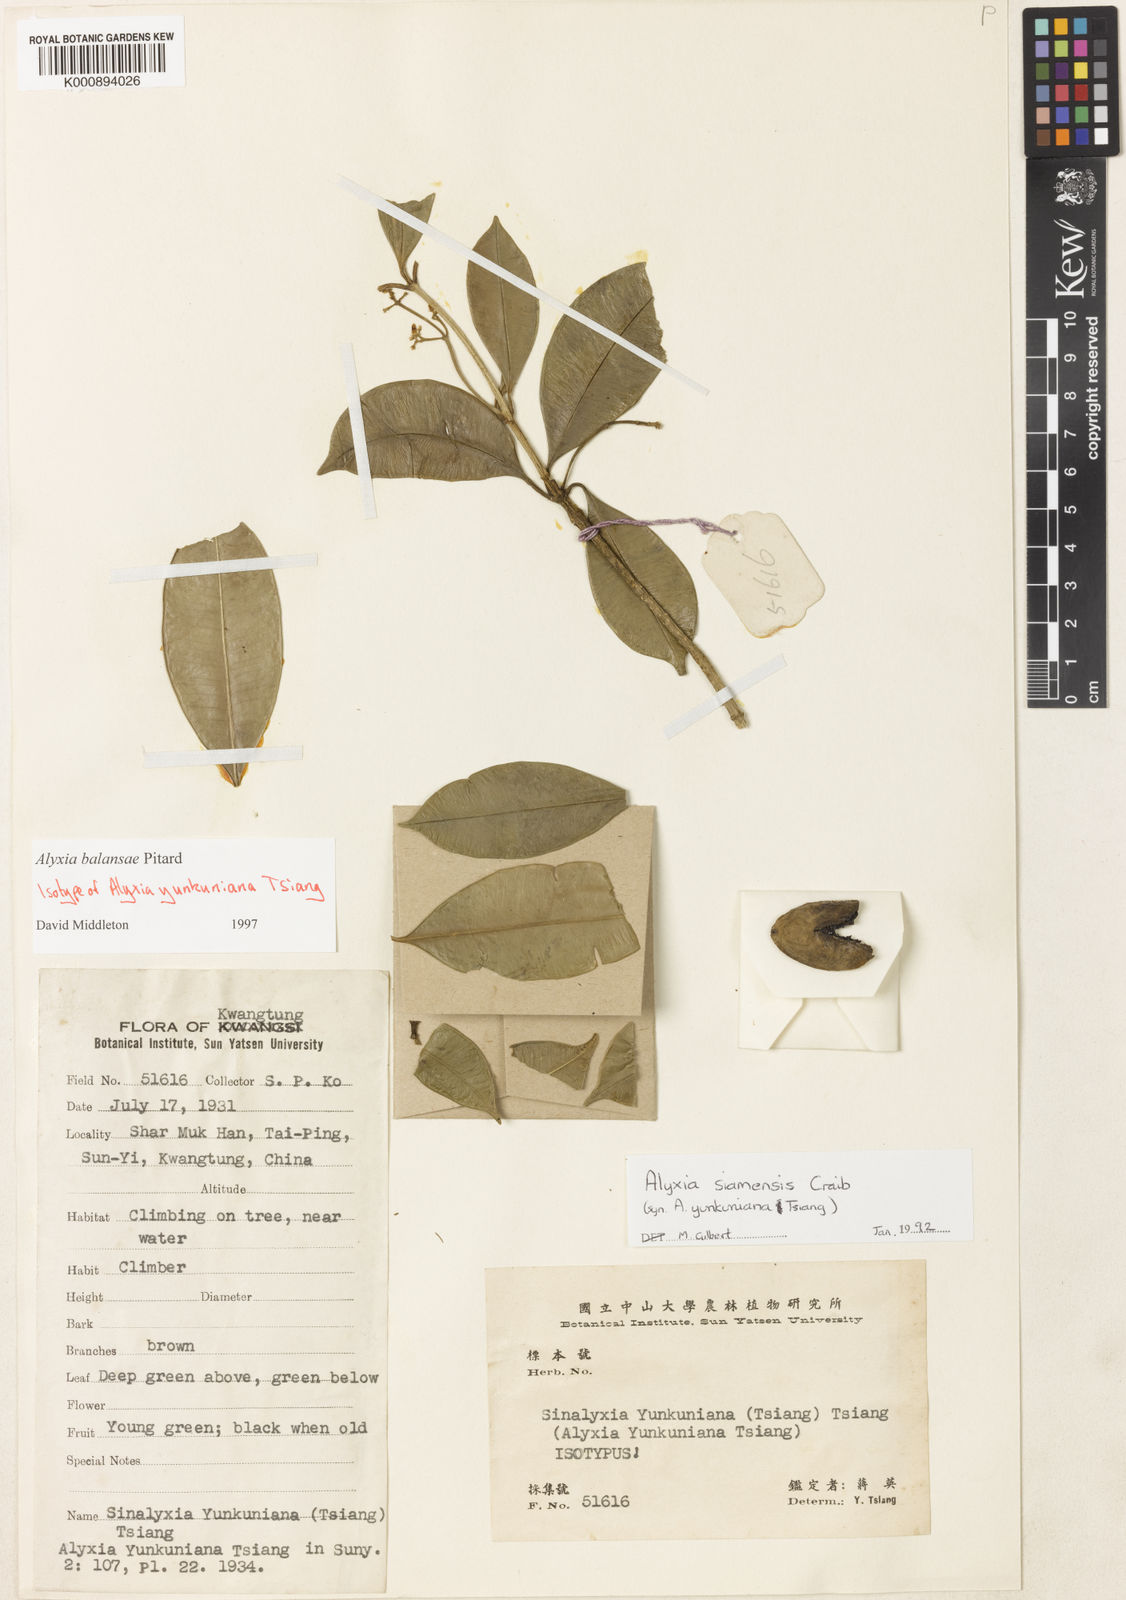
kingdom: Plantae
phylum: Tracheophyta
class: Magnoliopsida
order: Gentianales
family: Apocynaceae
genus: Alyxia
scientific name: Alyxia siamensis
